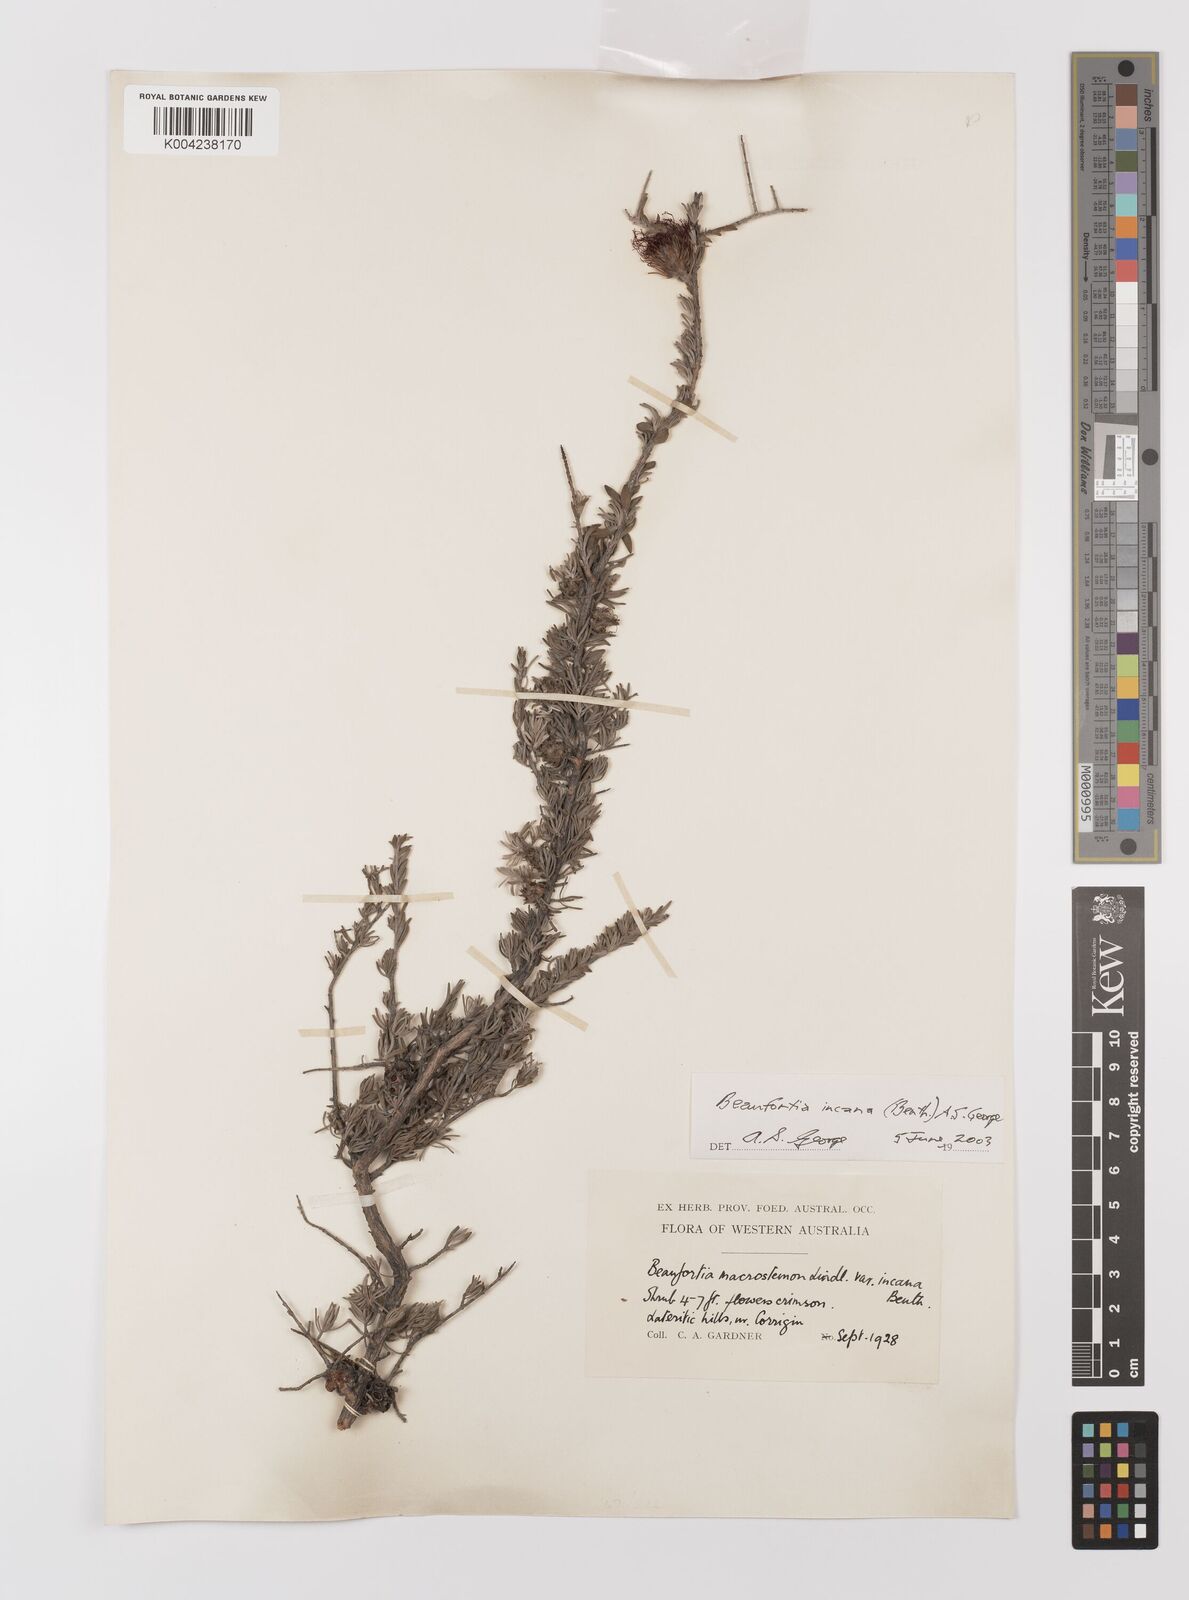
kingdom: Plantae
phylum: Tracheophyta
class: Magnoliopsida
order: Myrtales
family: Myrtaceae
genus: Melaleuca
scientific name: Melaleuca cinerea
